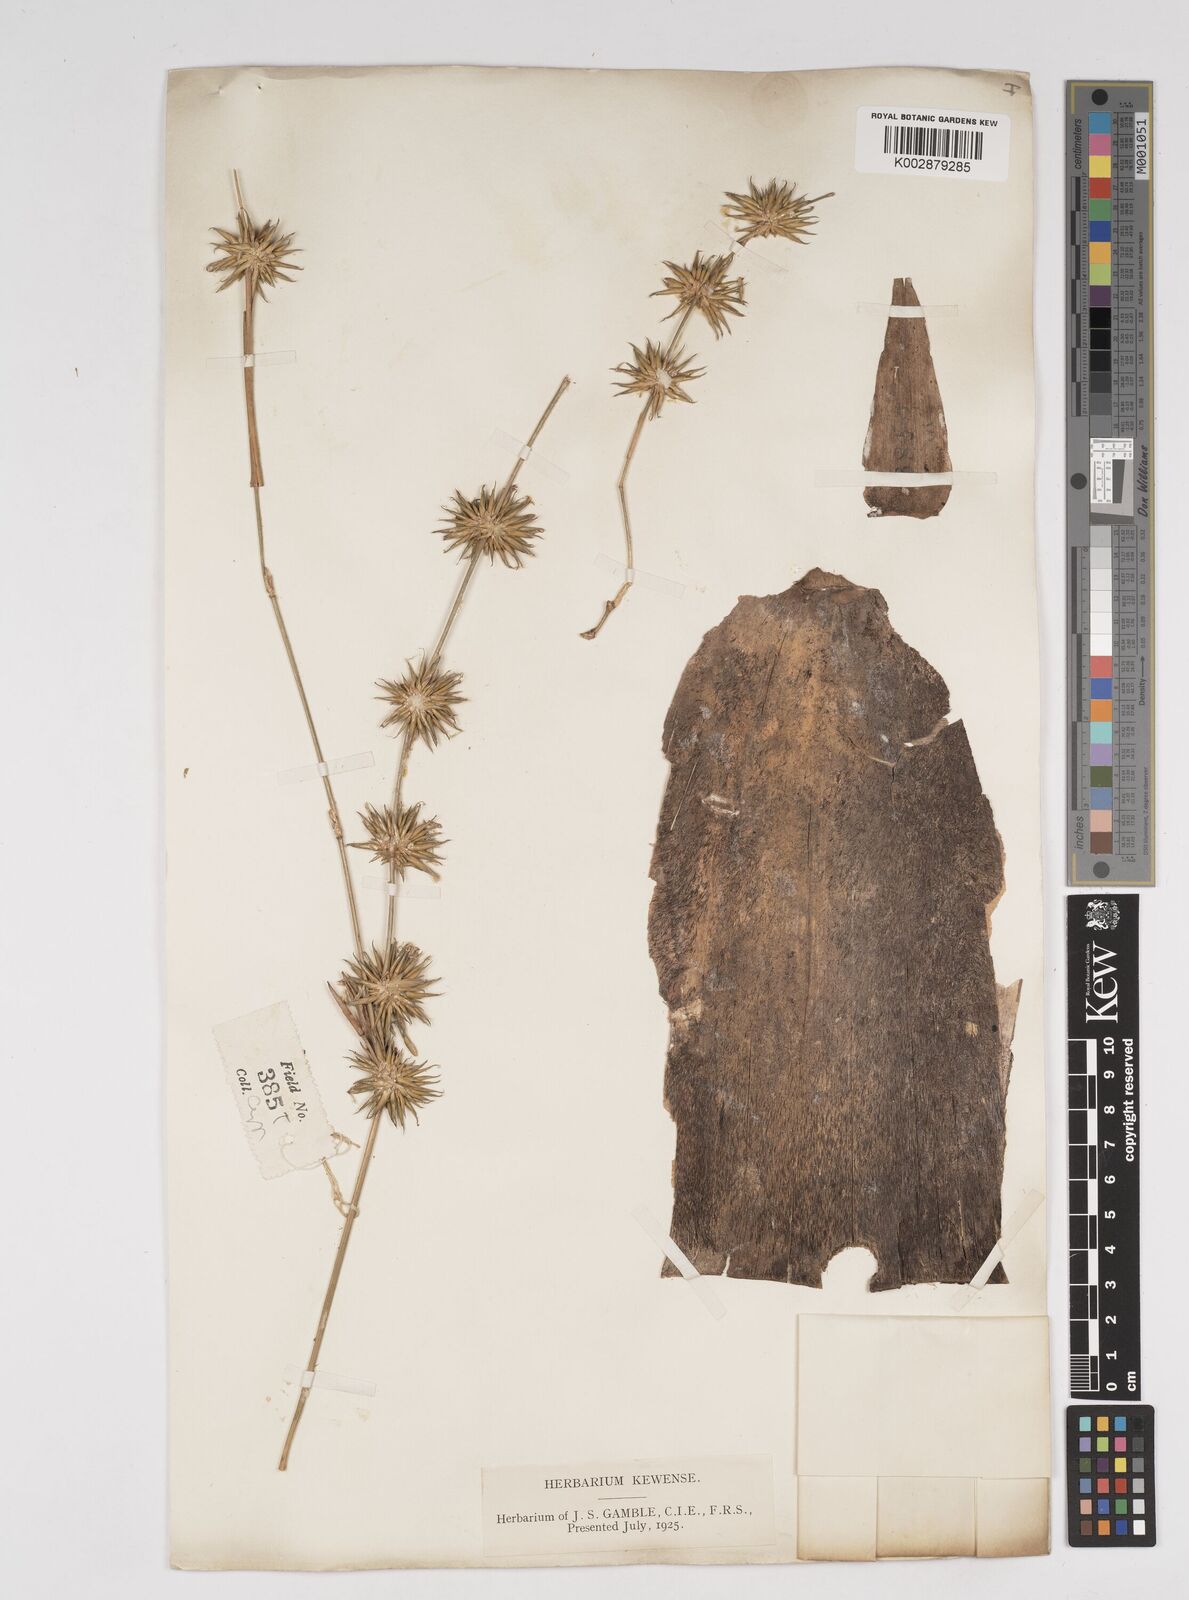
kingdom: Plantae
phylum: Tracheophyta
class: Liliopsida
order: Poales
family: Poaceae
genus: Dendrocalamus
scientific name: Dendrocalamus
